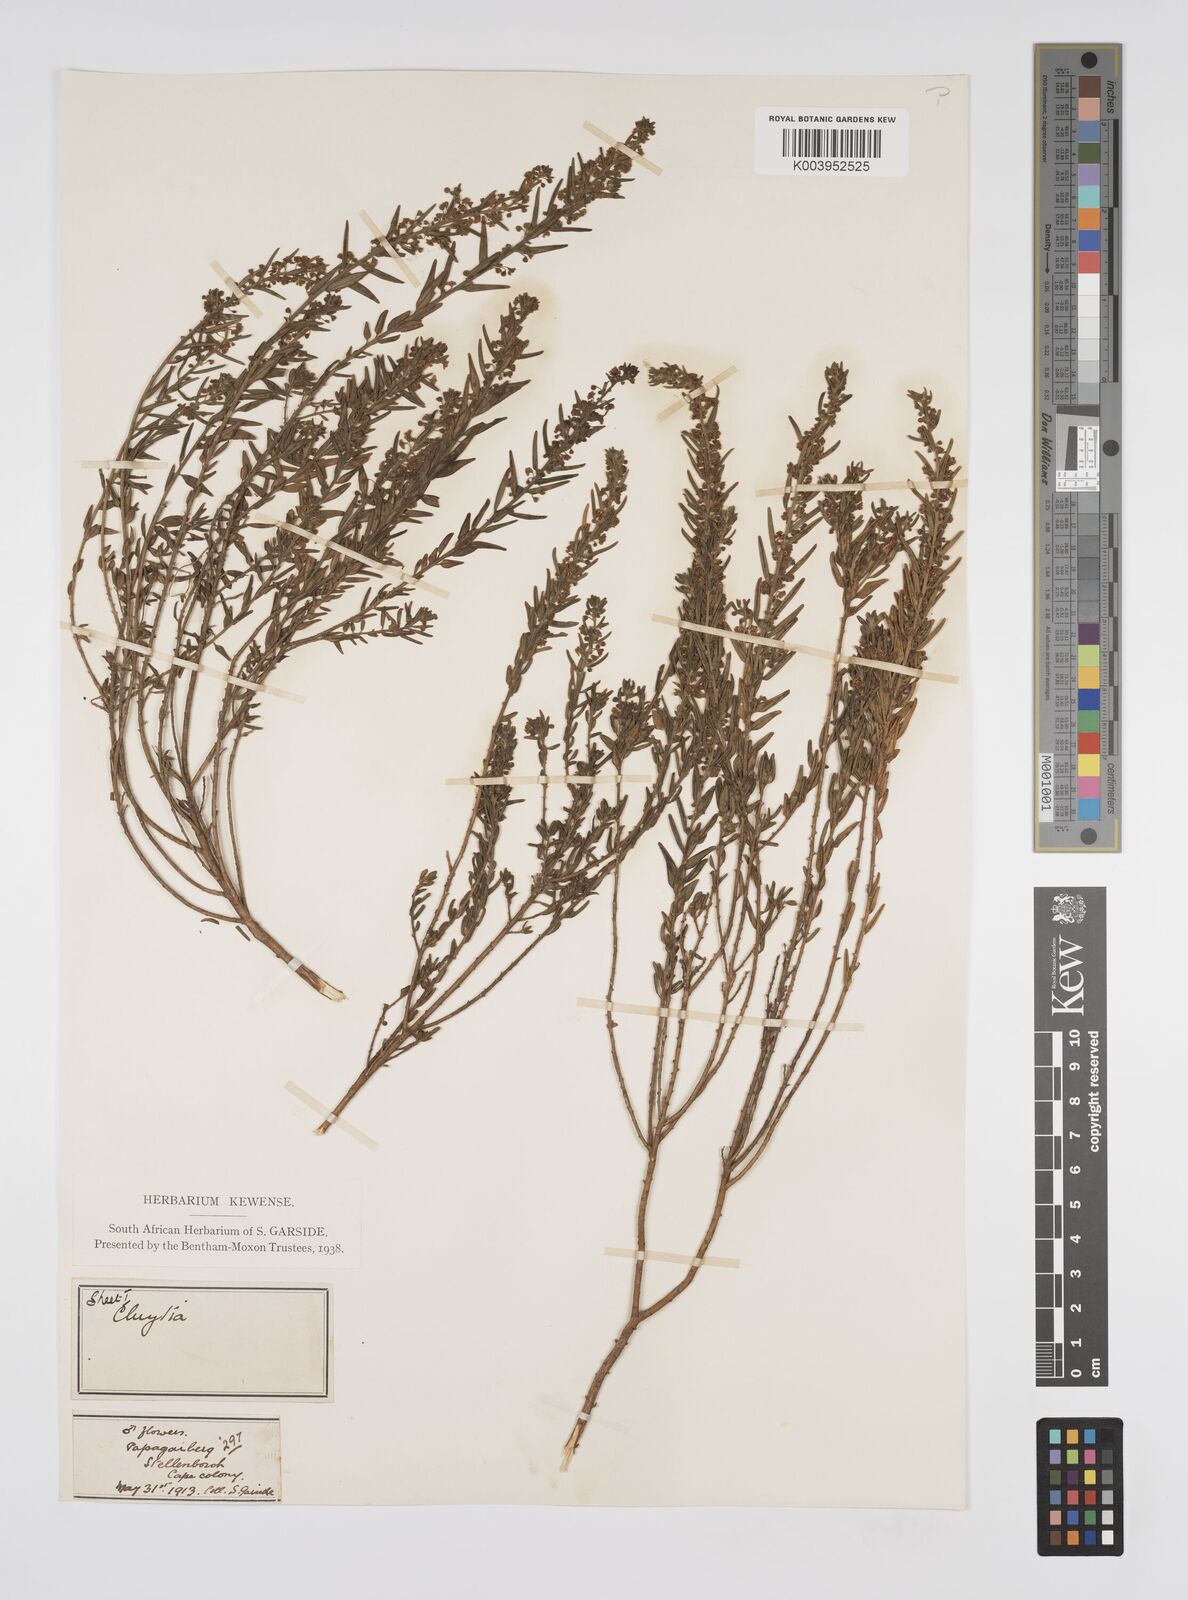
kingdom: Plantae
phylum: Tracheophyta
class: Magnoliopsida
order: Malpighiales
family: Peraceae
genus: Clutia
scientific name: Clutia
